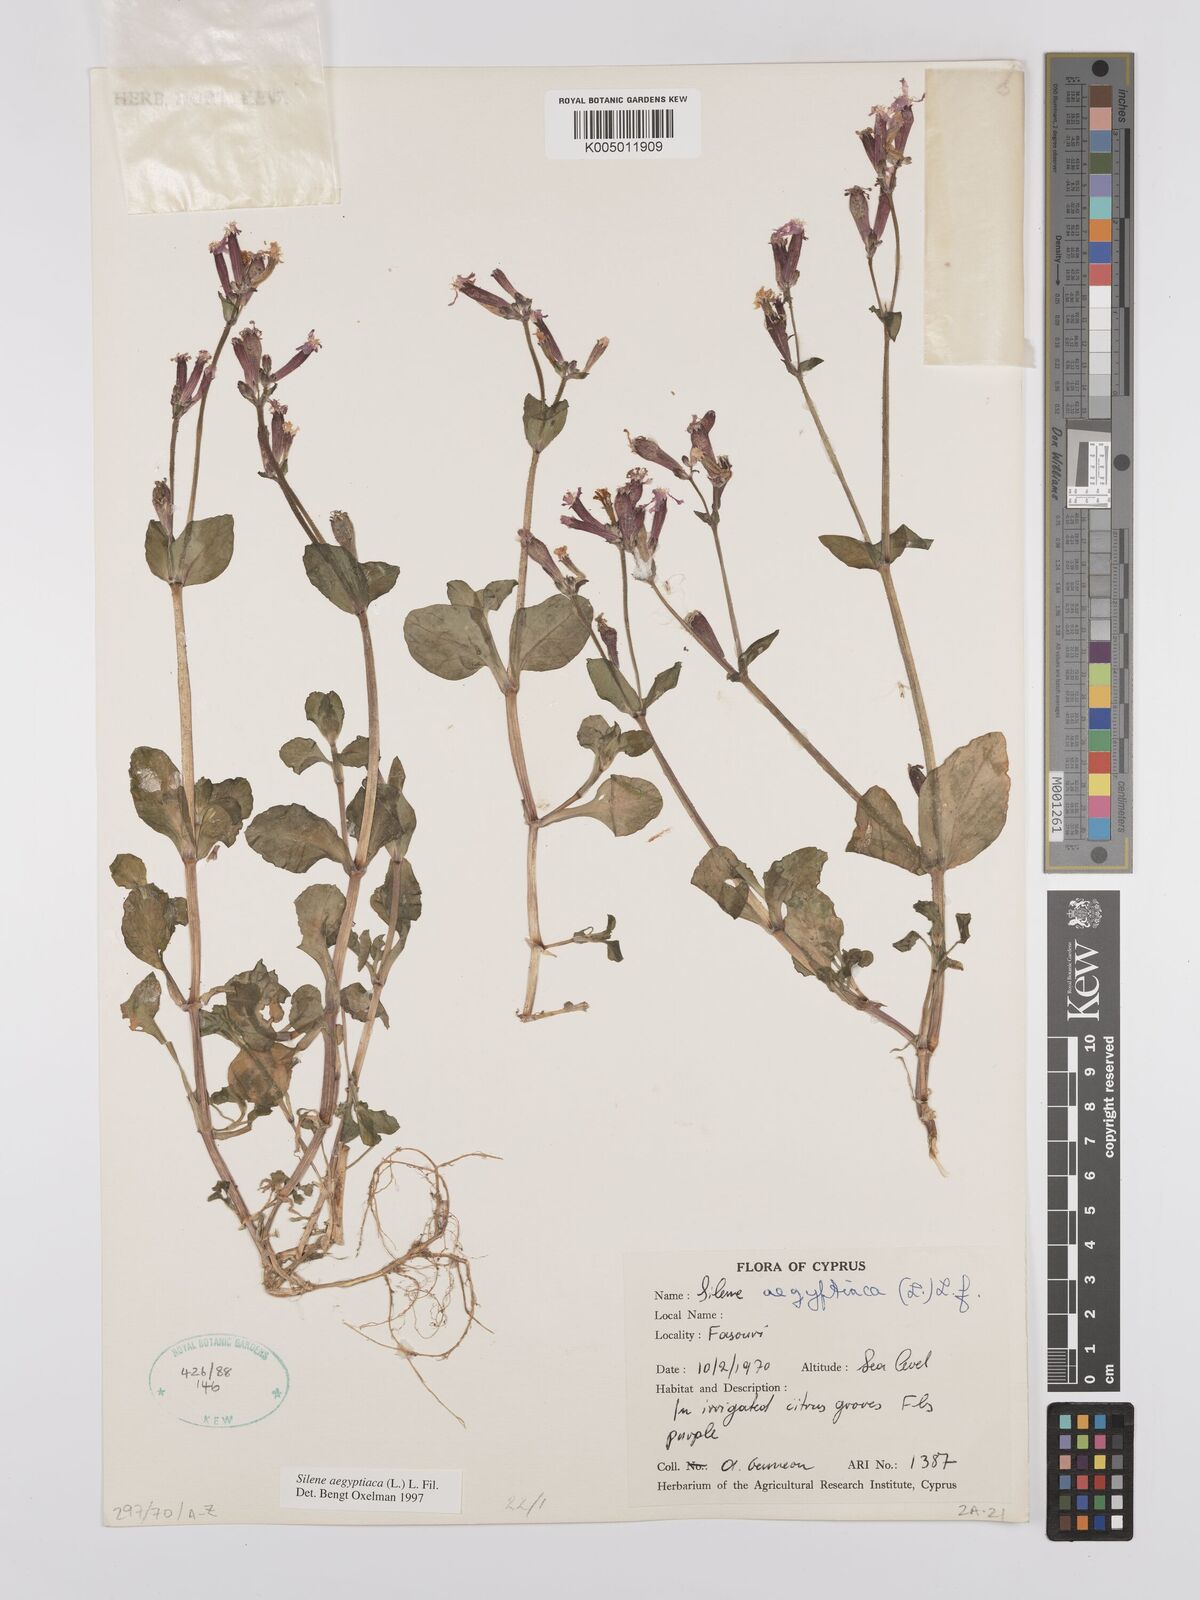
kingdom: Plantae
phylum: Tracheophyta
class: Magnoliopsida
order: Caryophyllales
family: Caryophyllaceae
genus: Silene
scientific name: Silene aegyptiaca
